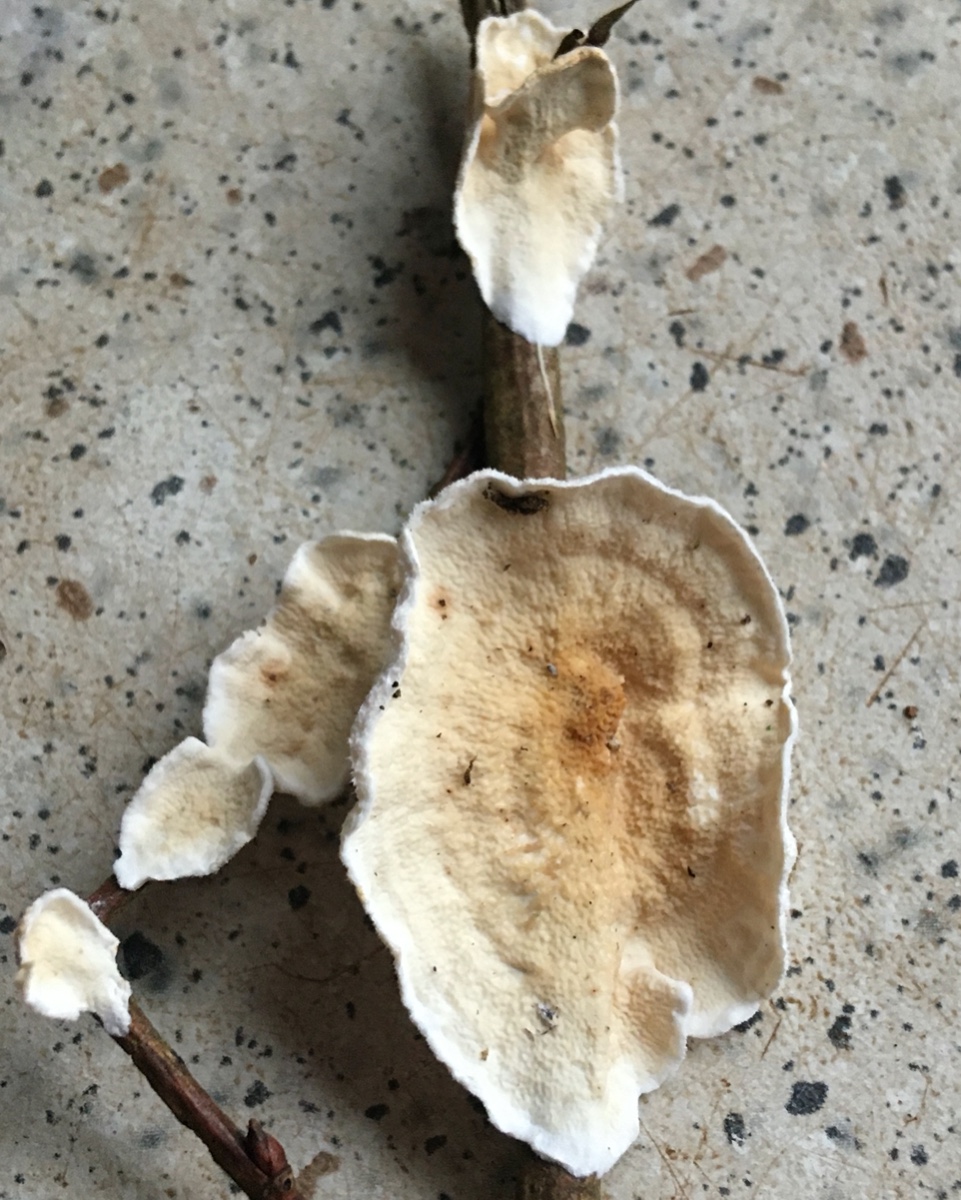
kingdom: Fungi
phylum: Basidiomycota
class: Agaricomycetes
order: Polyporales
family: Irpicaceae
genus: Byssomerulius
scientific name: Byssomerulius corium
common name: læder-åresvamp
